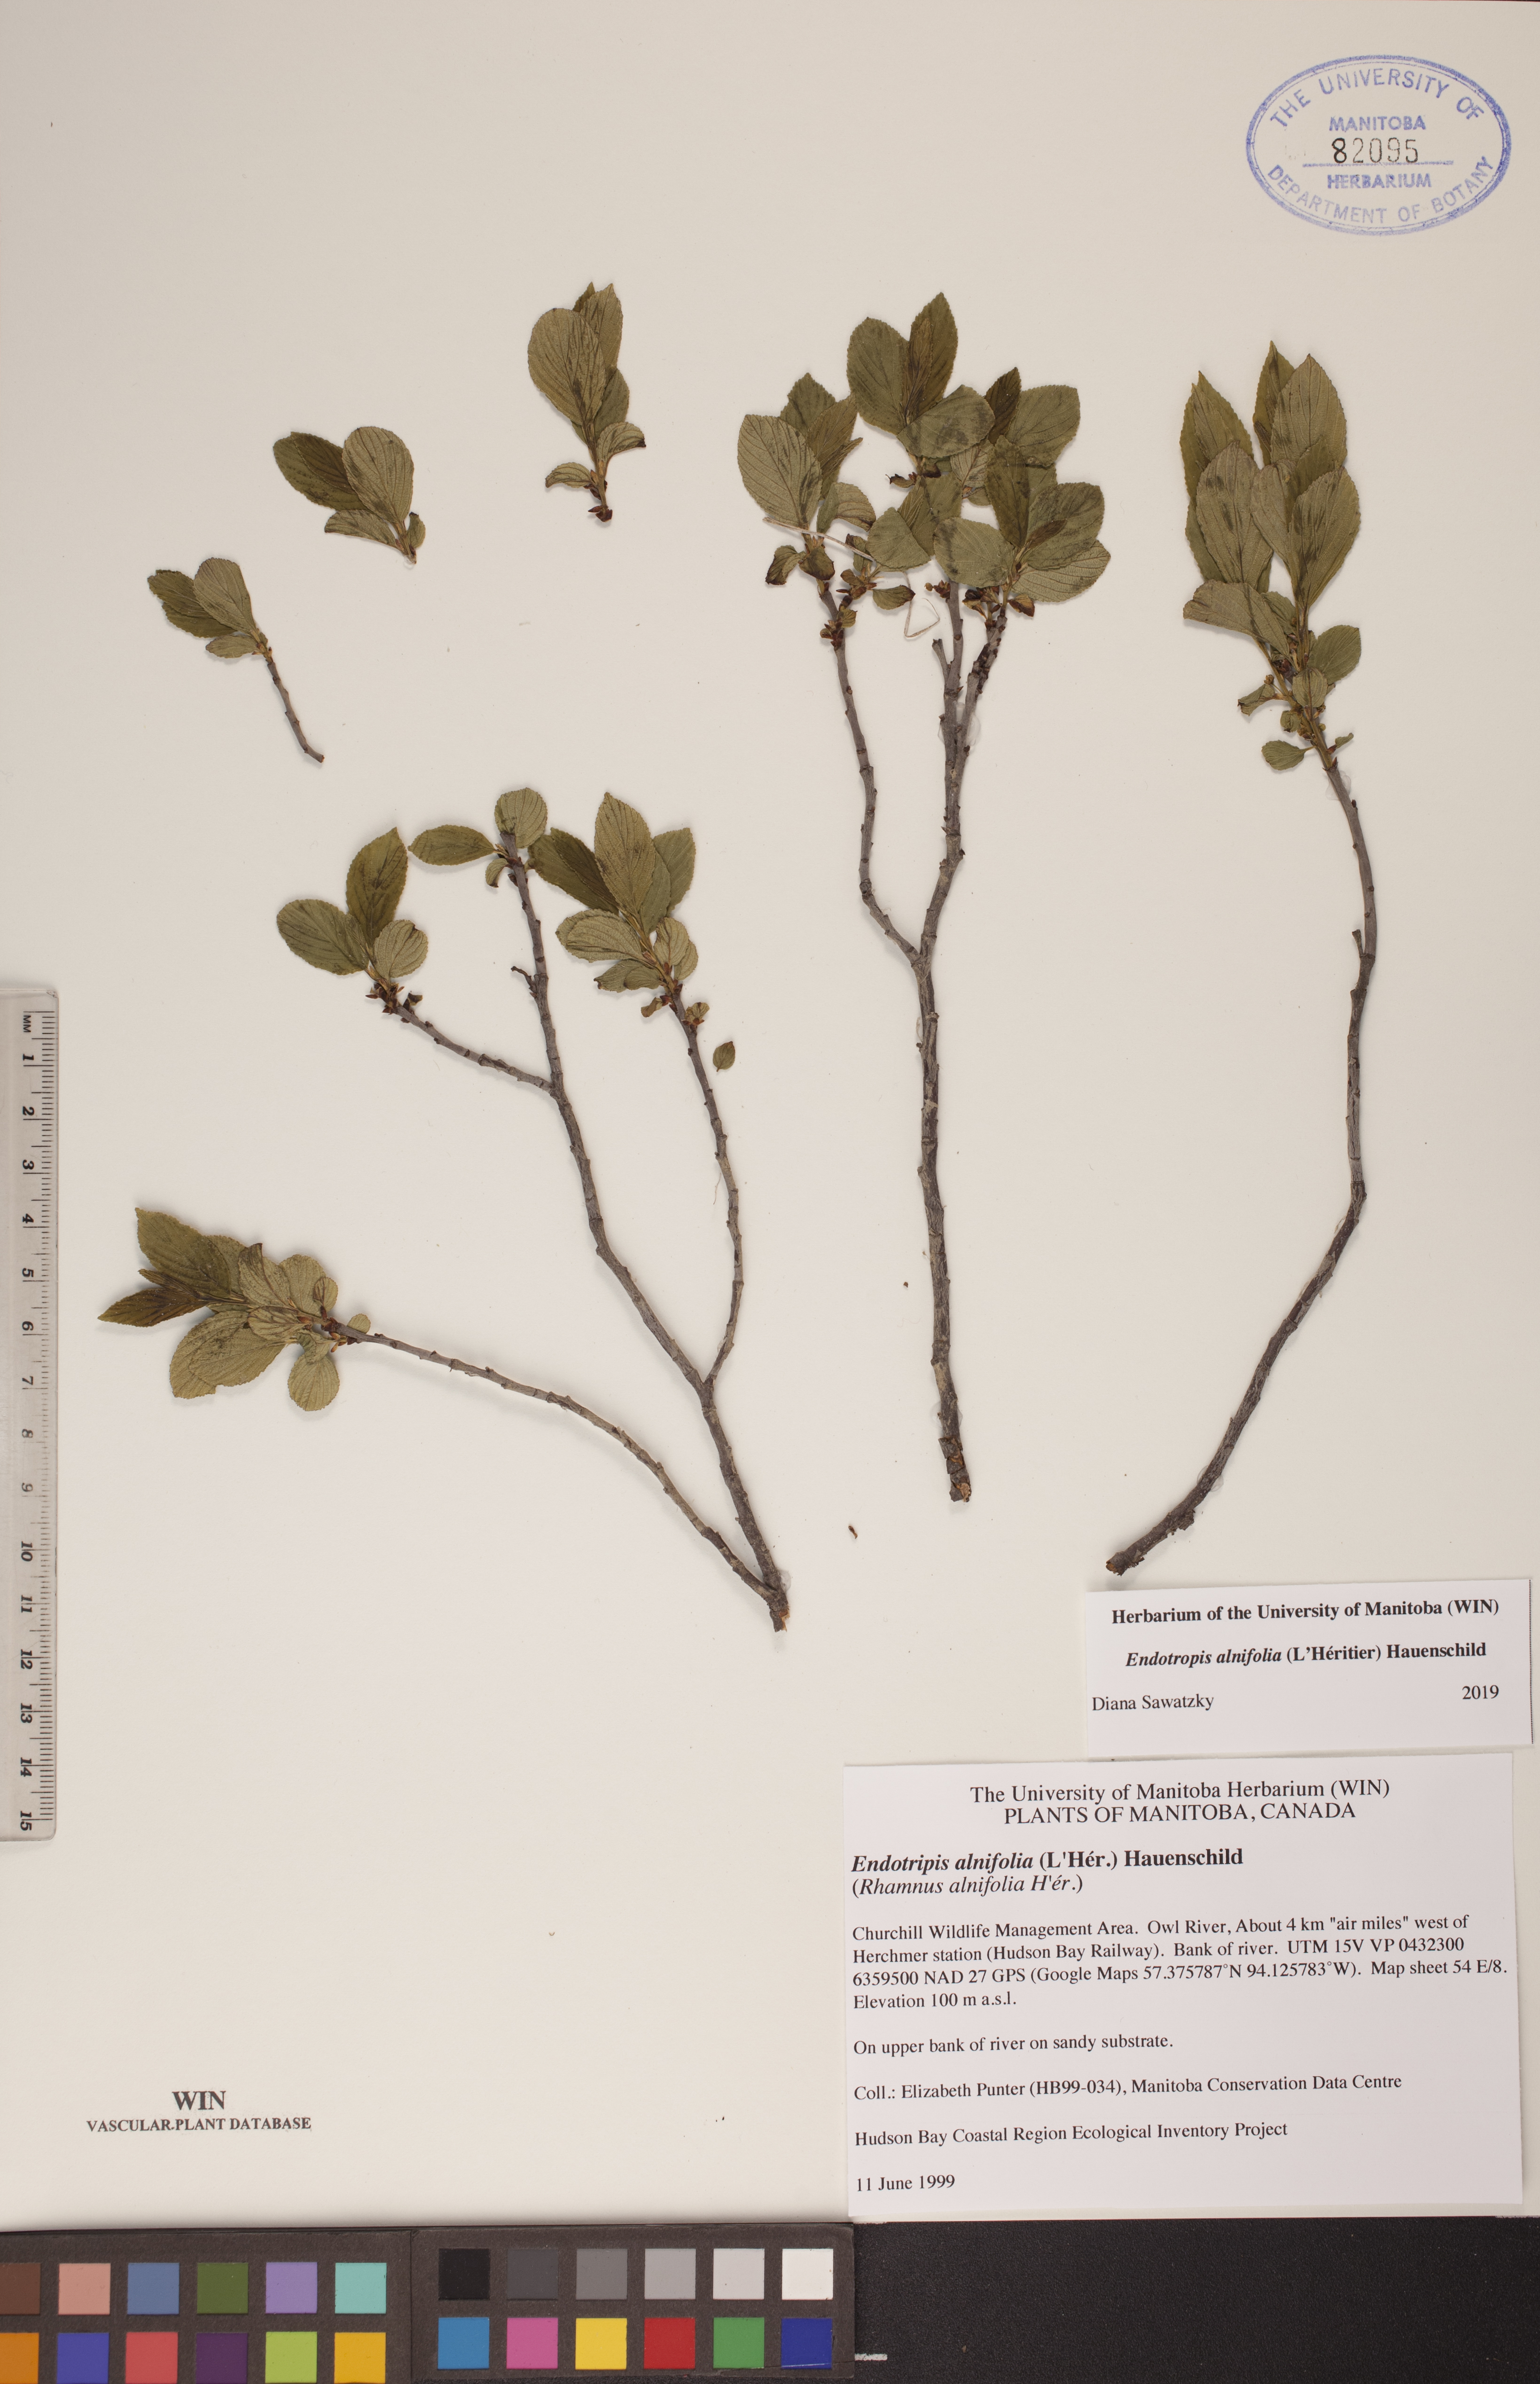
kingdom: Plantae
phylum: Tracheophyta
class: Magnoliopsida
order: Rosales
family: Rhamnaceae
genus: Endotropis
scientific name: Endotropis alnifolia
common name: American alder-buckthorn
